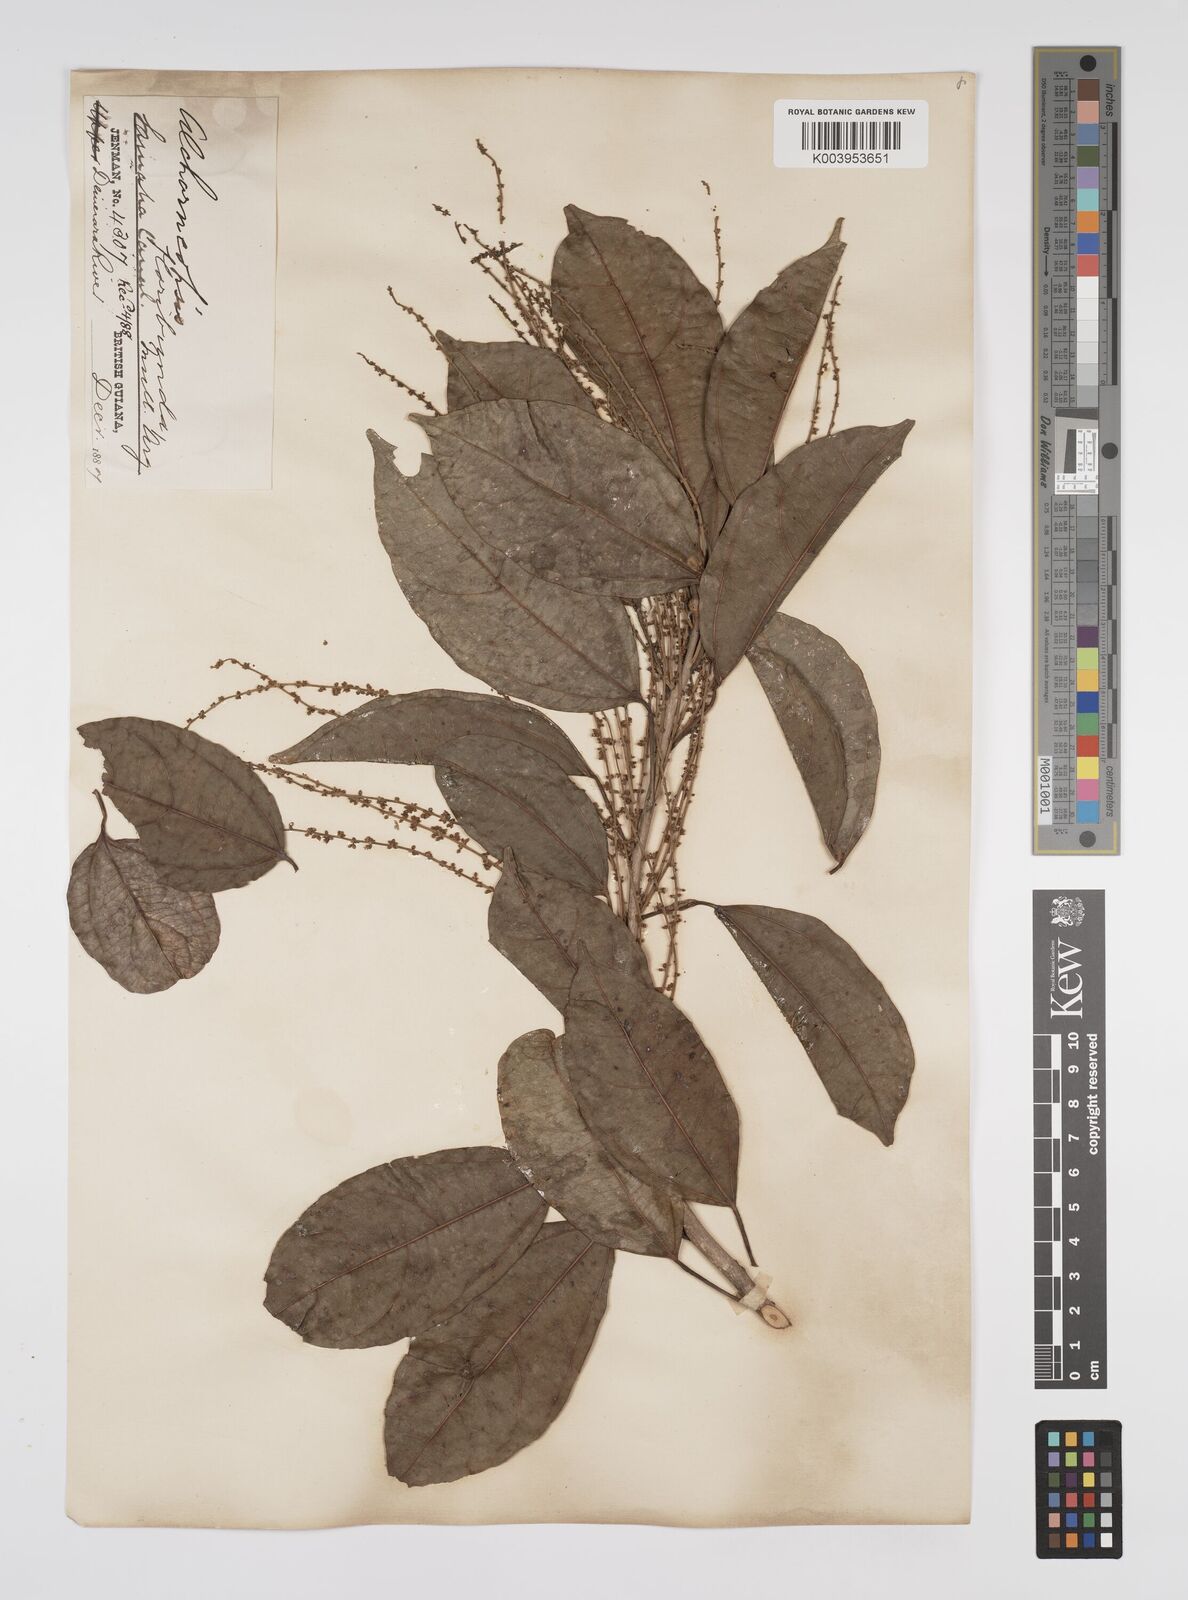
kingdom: Plantae
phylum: Tracheophyta
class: Magnoliopsida
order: Malpighiales
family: Euphorbiaceae
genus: Alchorneopsis
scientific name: Alchorneopsis floribunda
